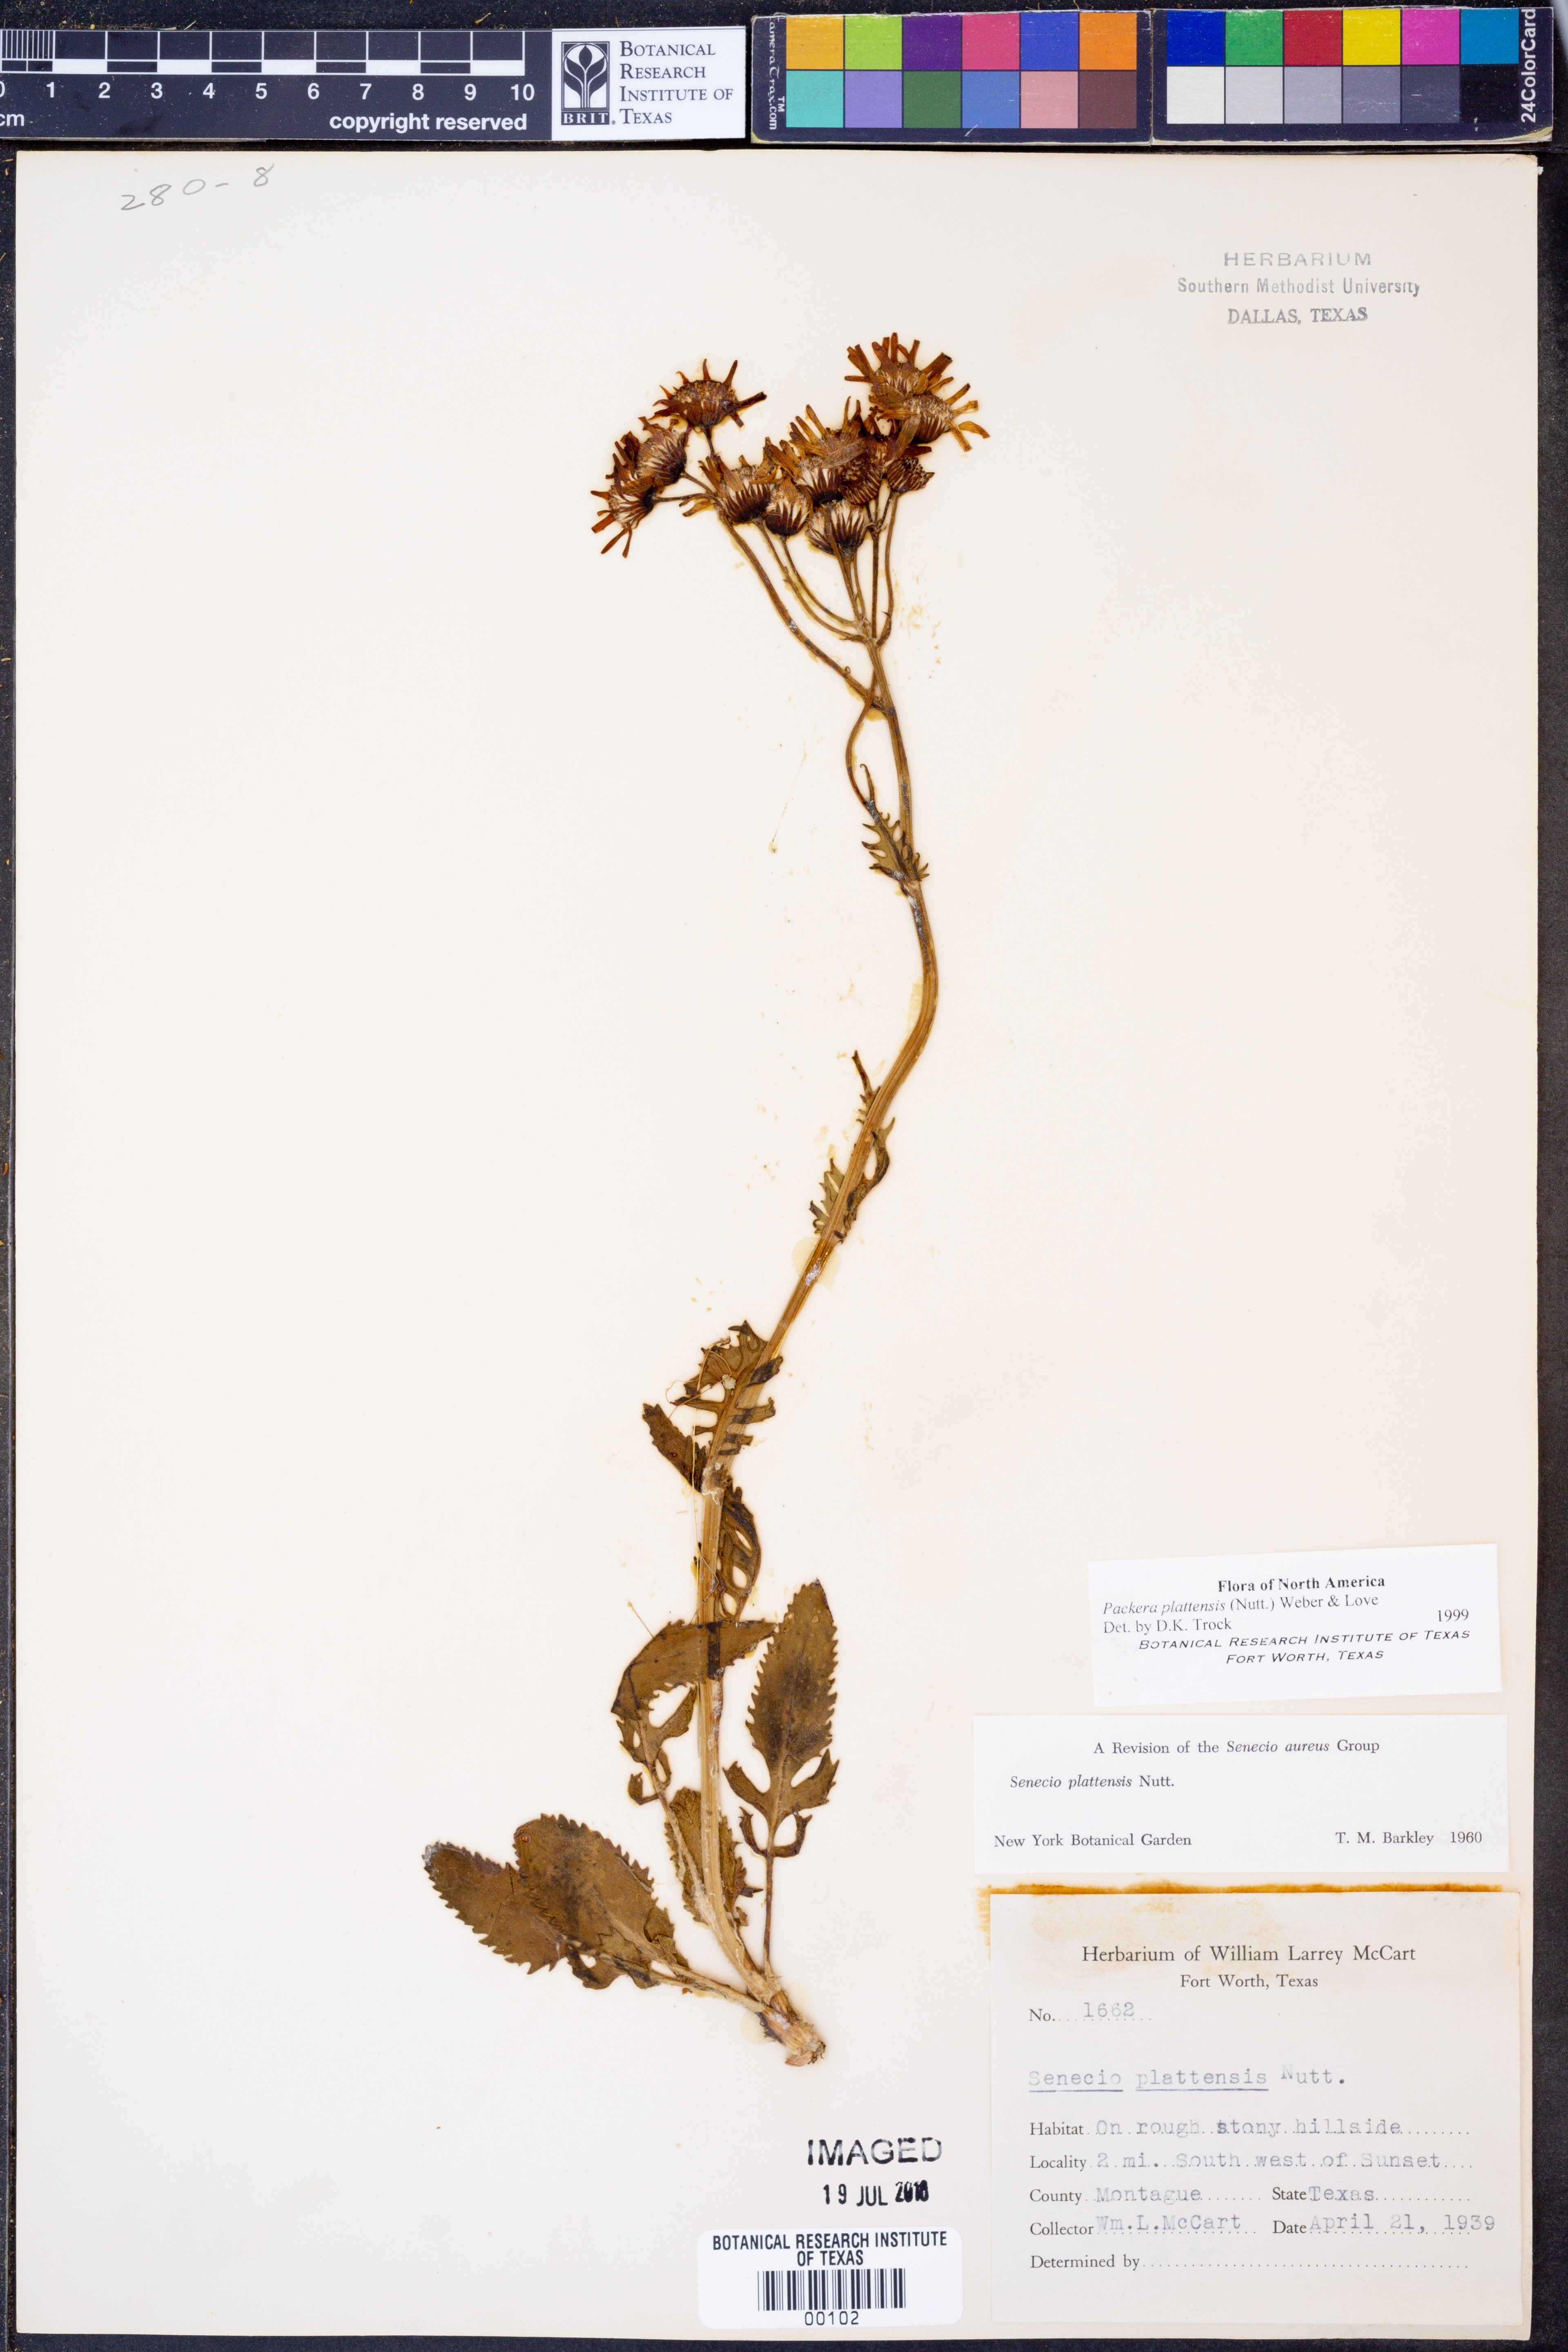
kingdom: Plantae
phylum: Tracheophyta
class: Magnoliopsida
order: Asterales
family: Asteraceae
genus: Packera
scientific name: Packera plattensis
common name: Prairie groundsel
